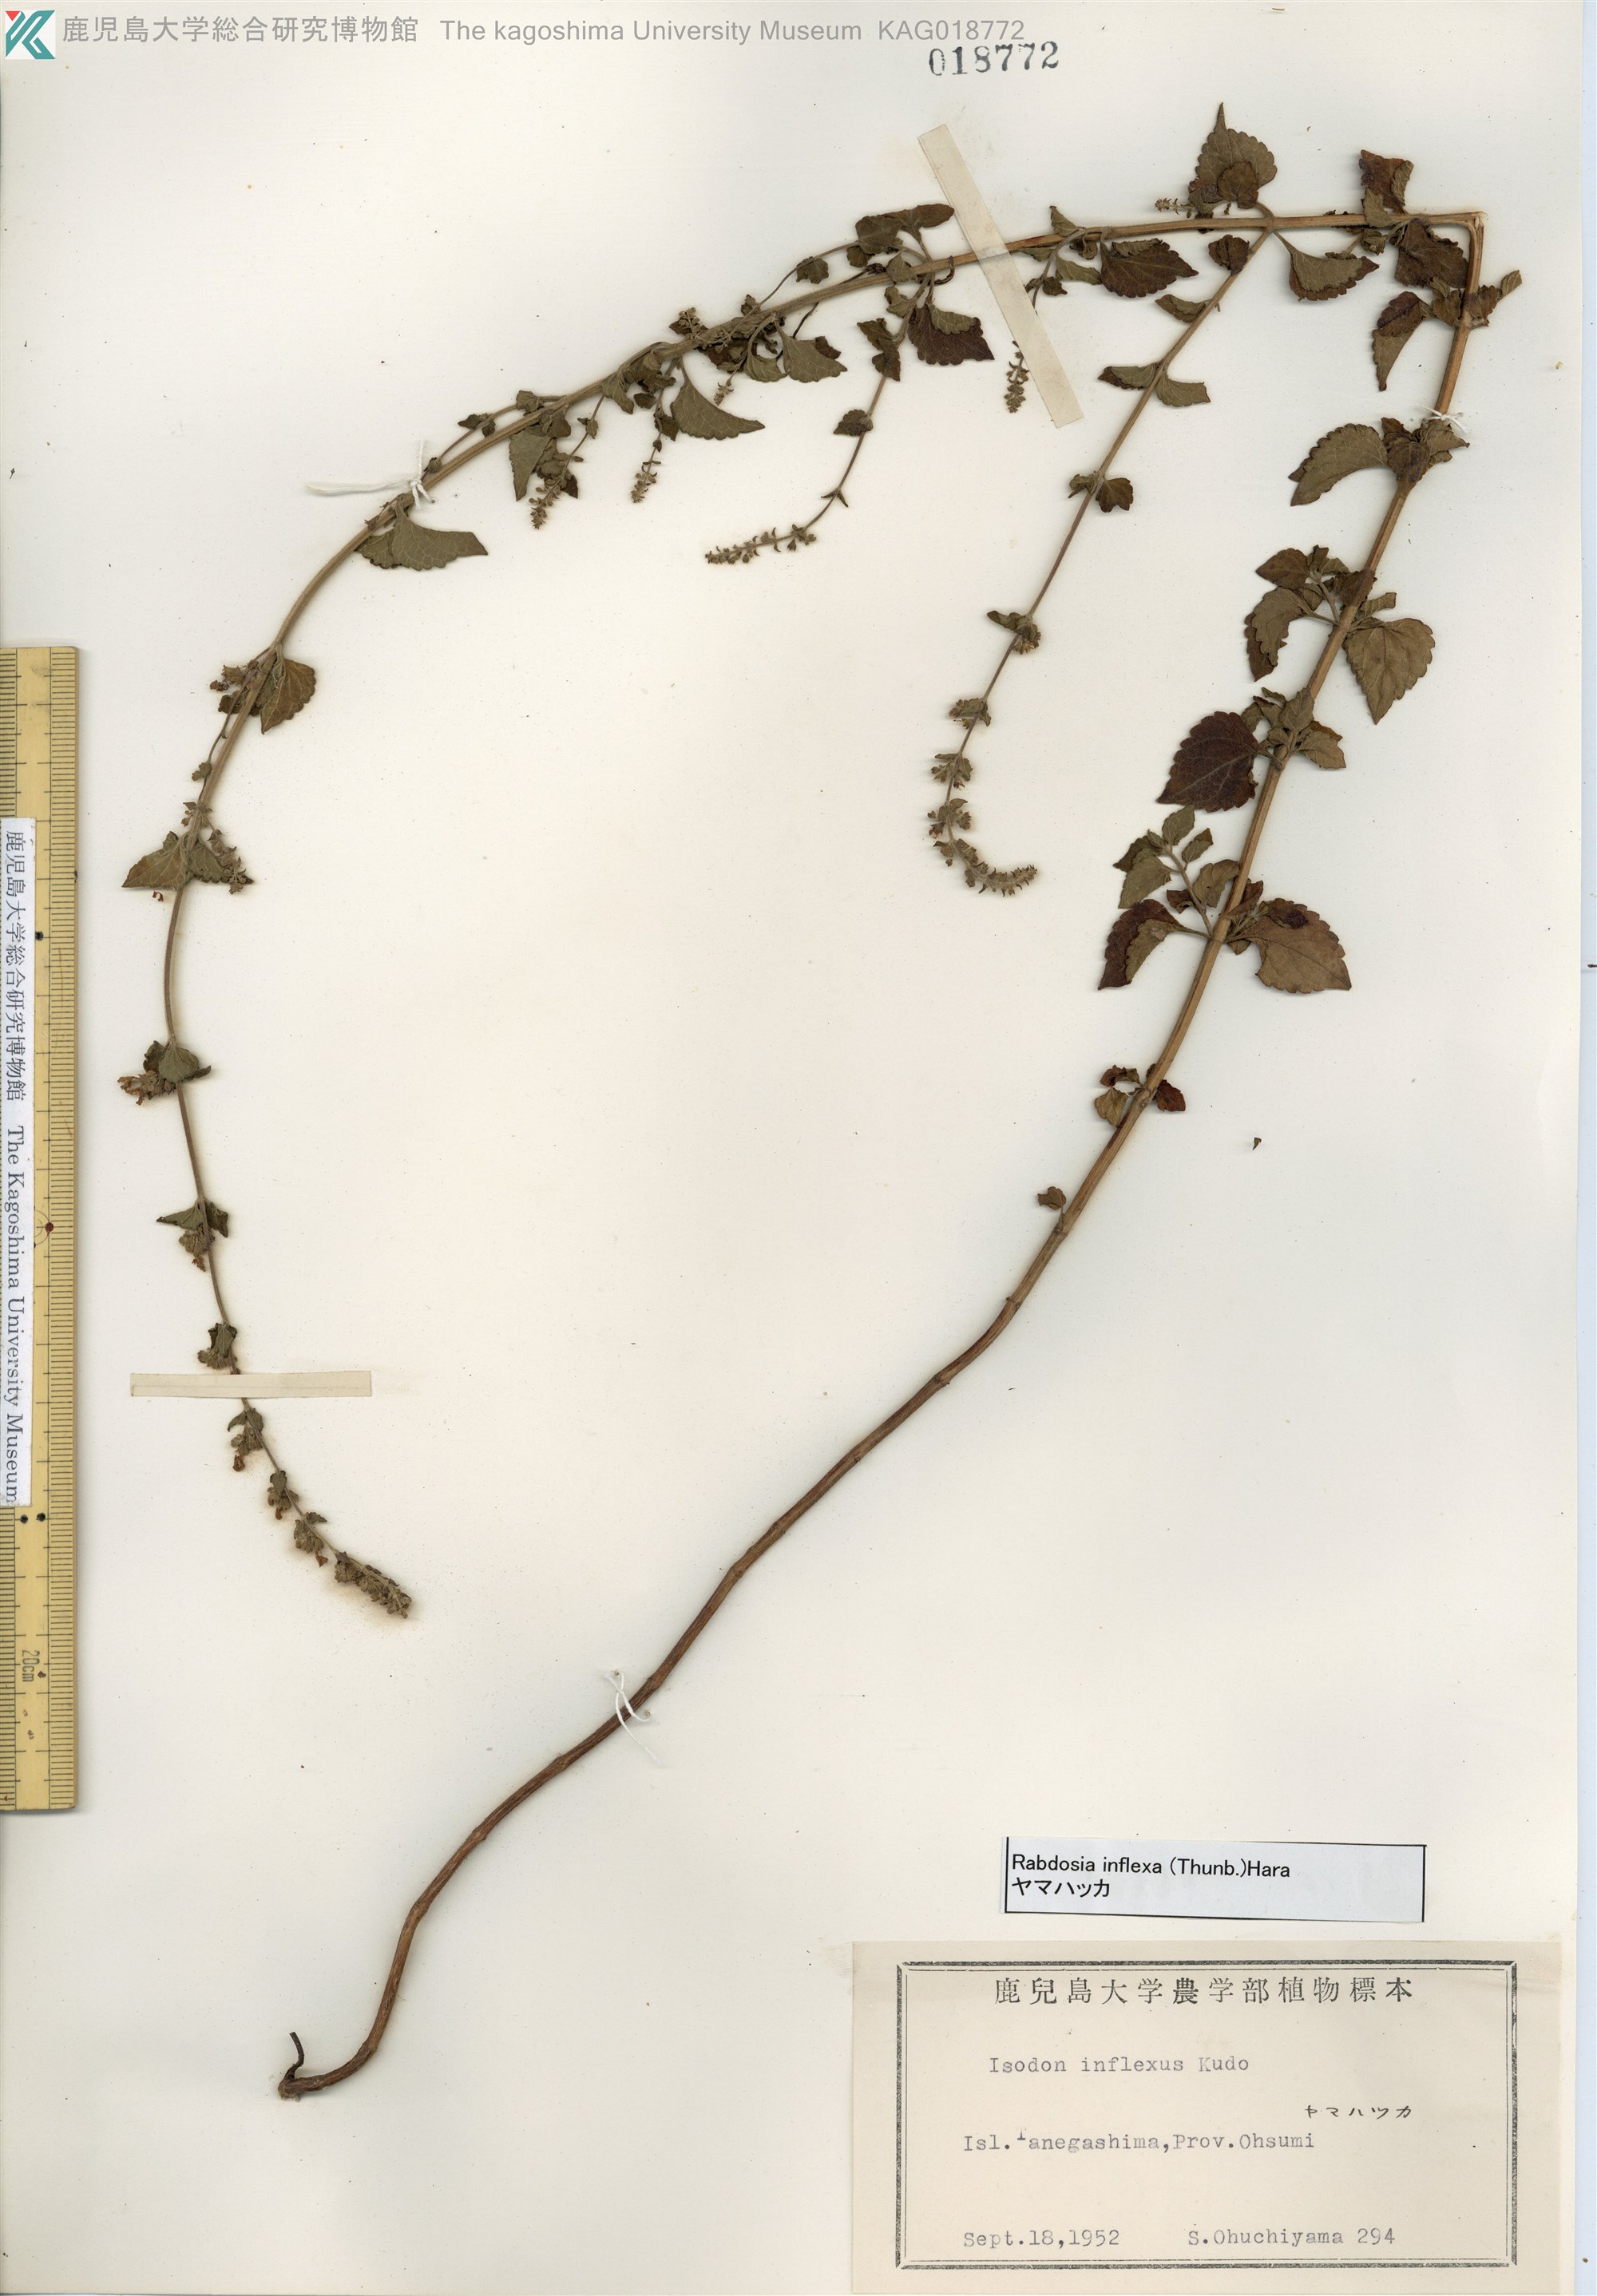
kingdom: Plantae
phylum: Tracheophyta
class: Magnoliopsida
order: Lamiales
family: Lamiaceae
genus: Isodon
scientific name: Isodon inflexus
